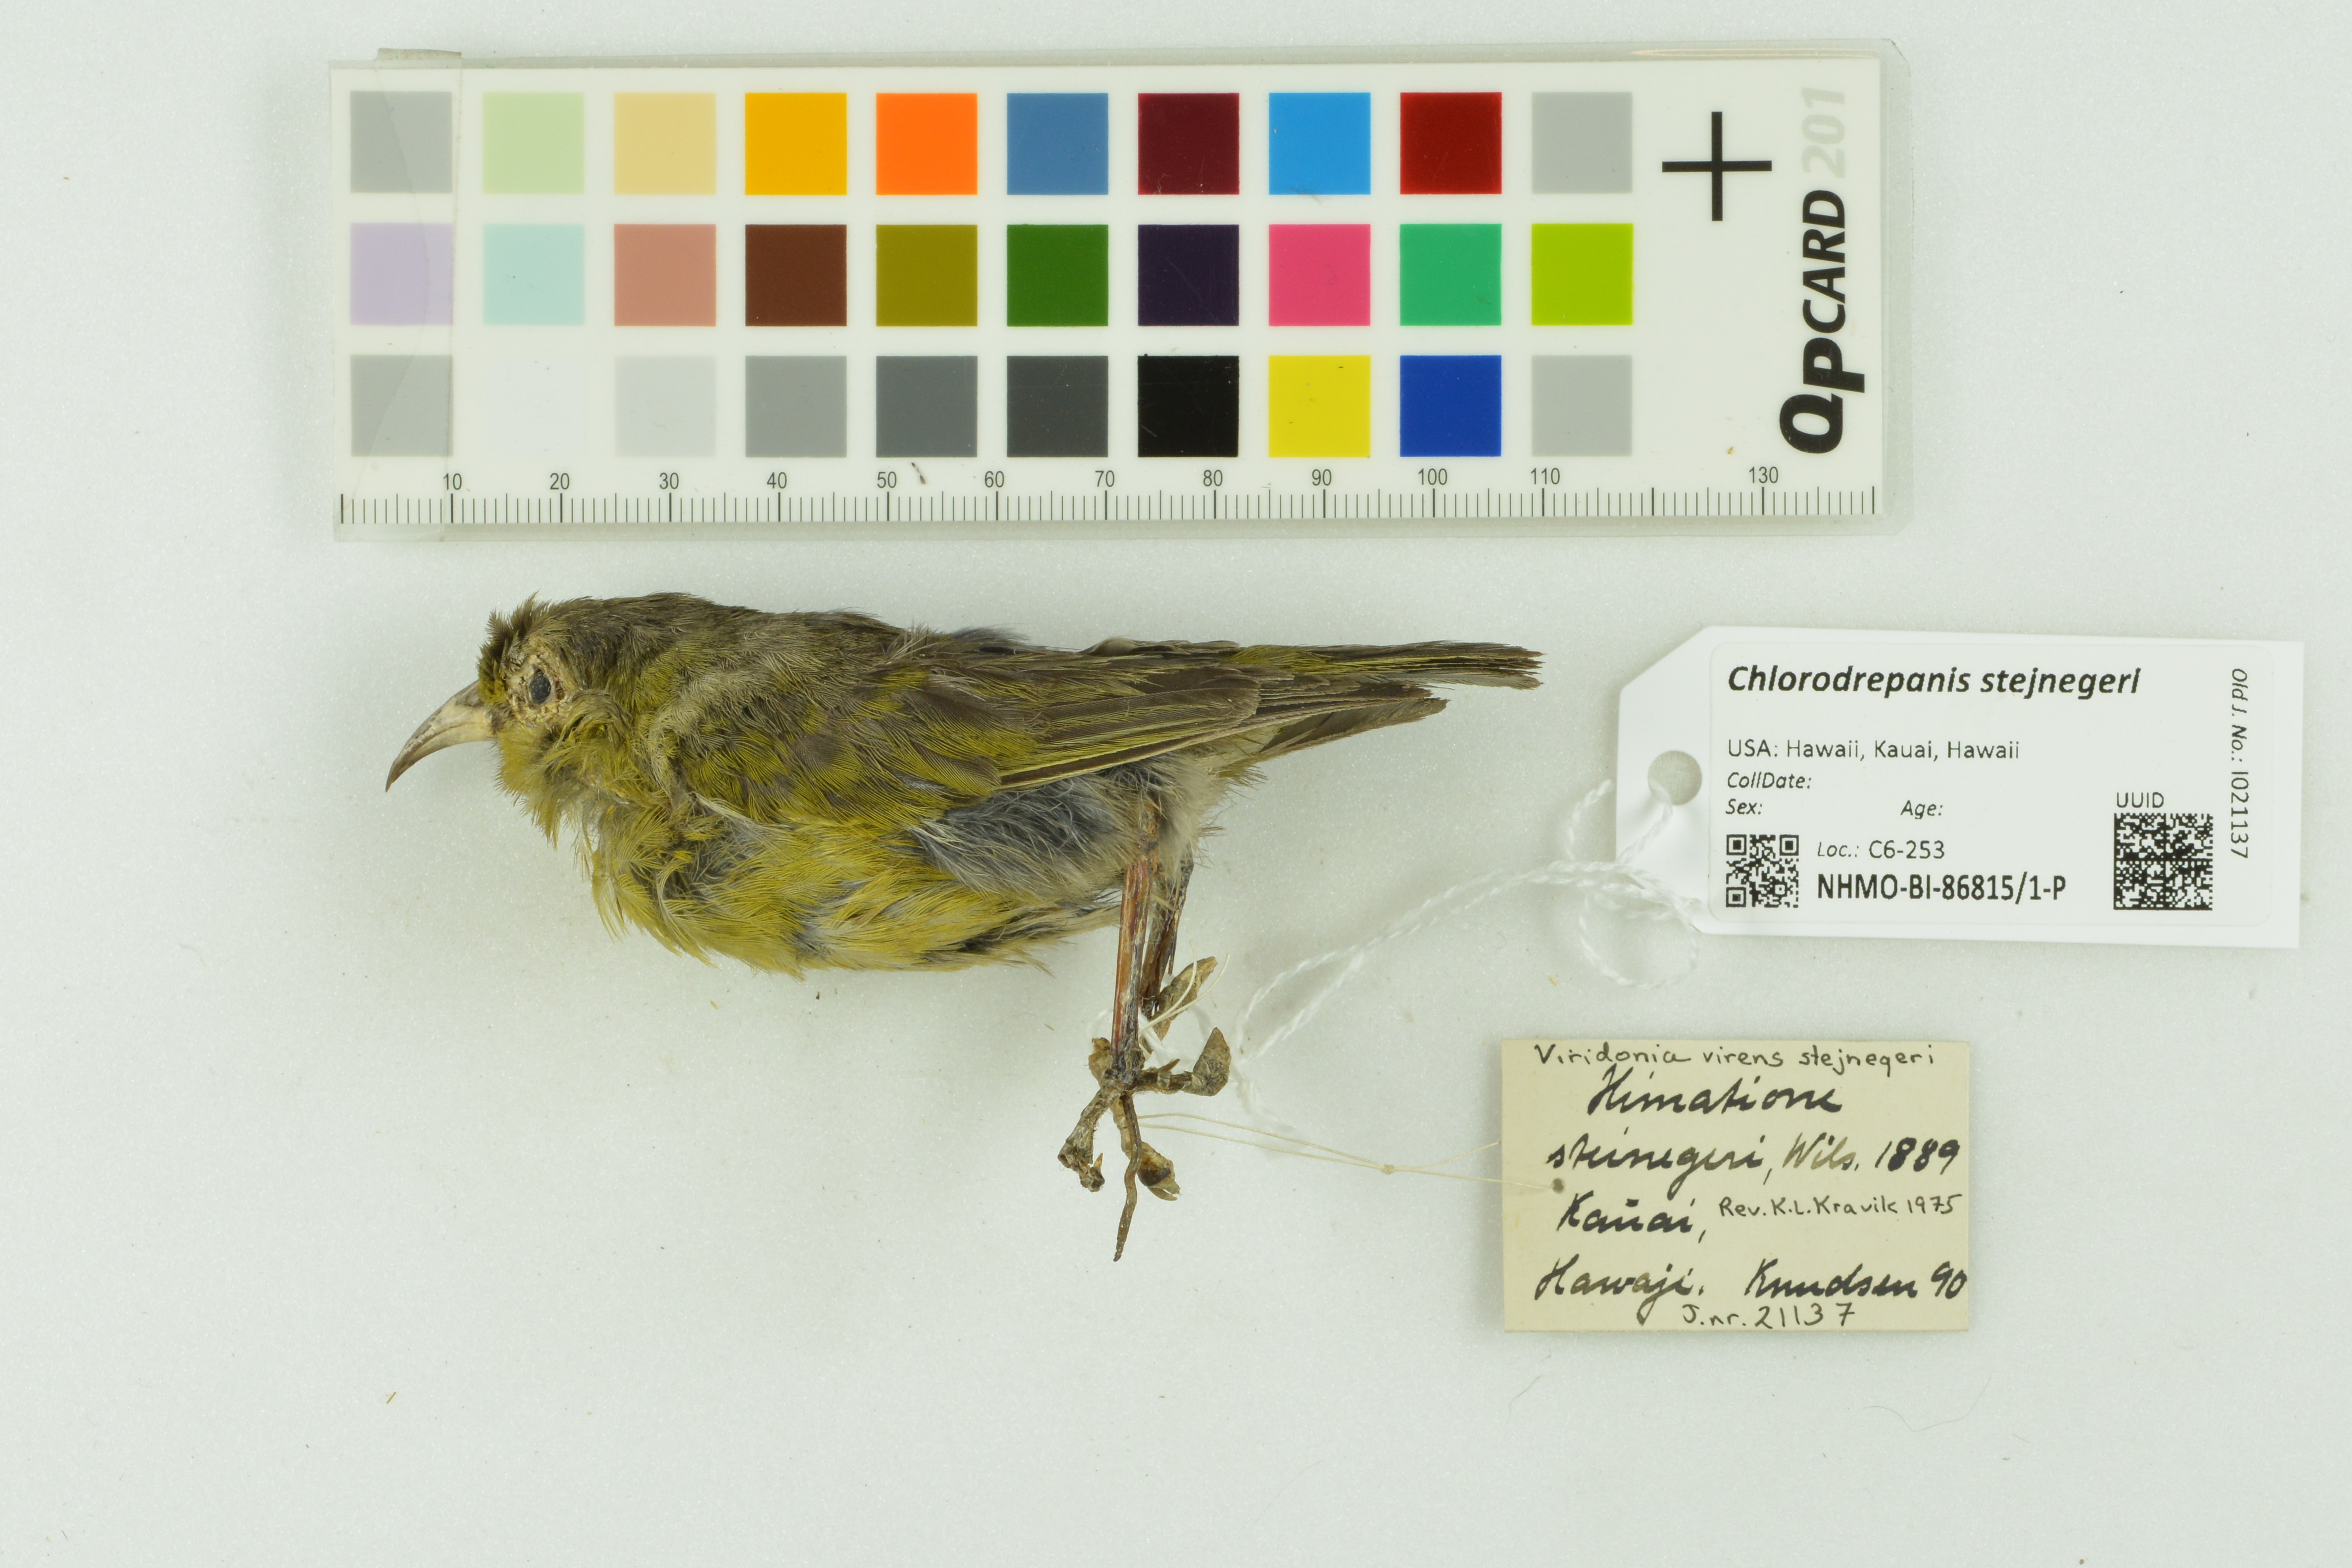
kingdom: Animalia
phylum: Chordata
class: Aves
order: Passeriformes
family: Fringillidae
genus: Chlorodrepanis
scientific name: Chlorodrepanis stejnegeri
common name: Kauai amakihi
